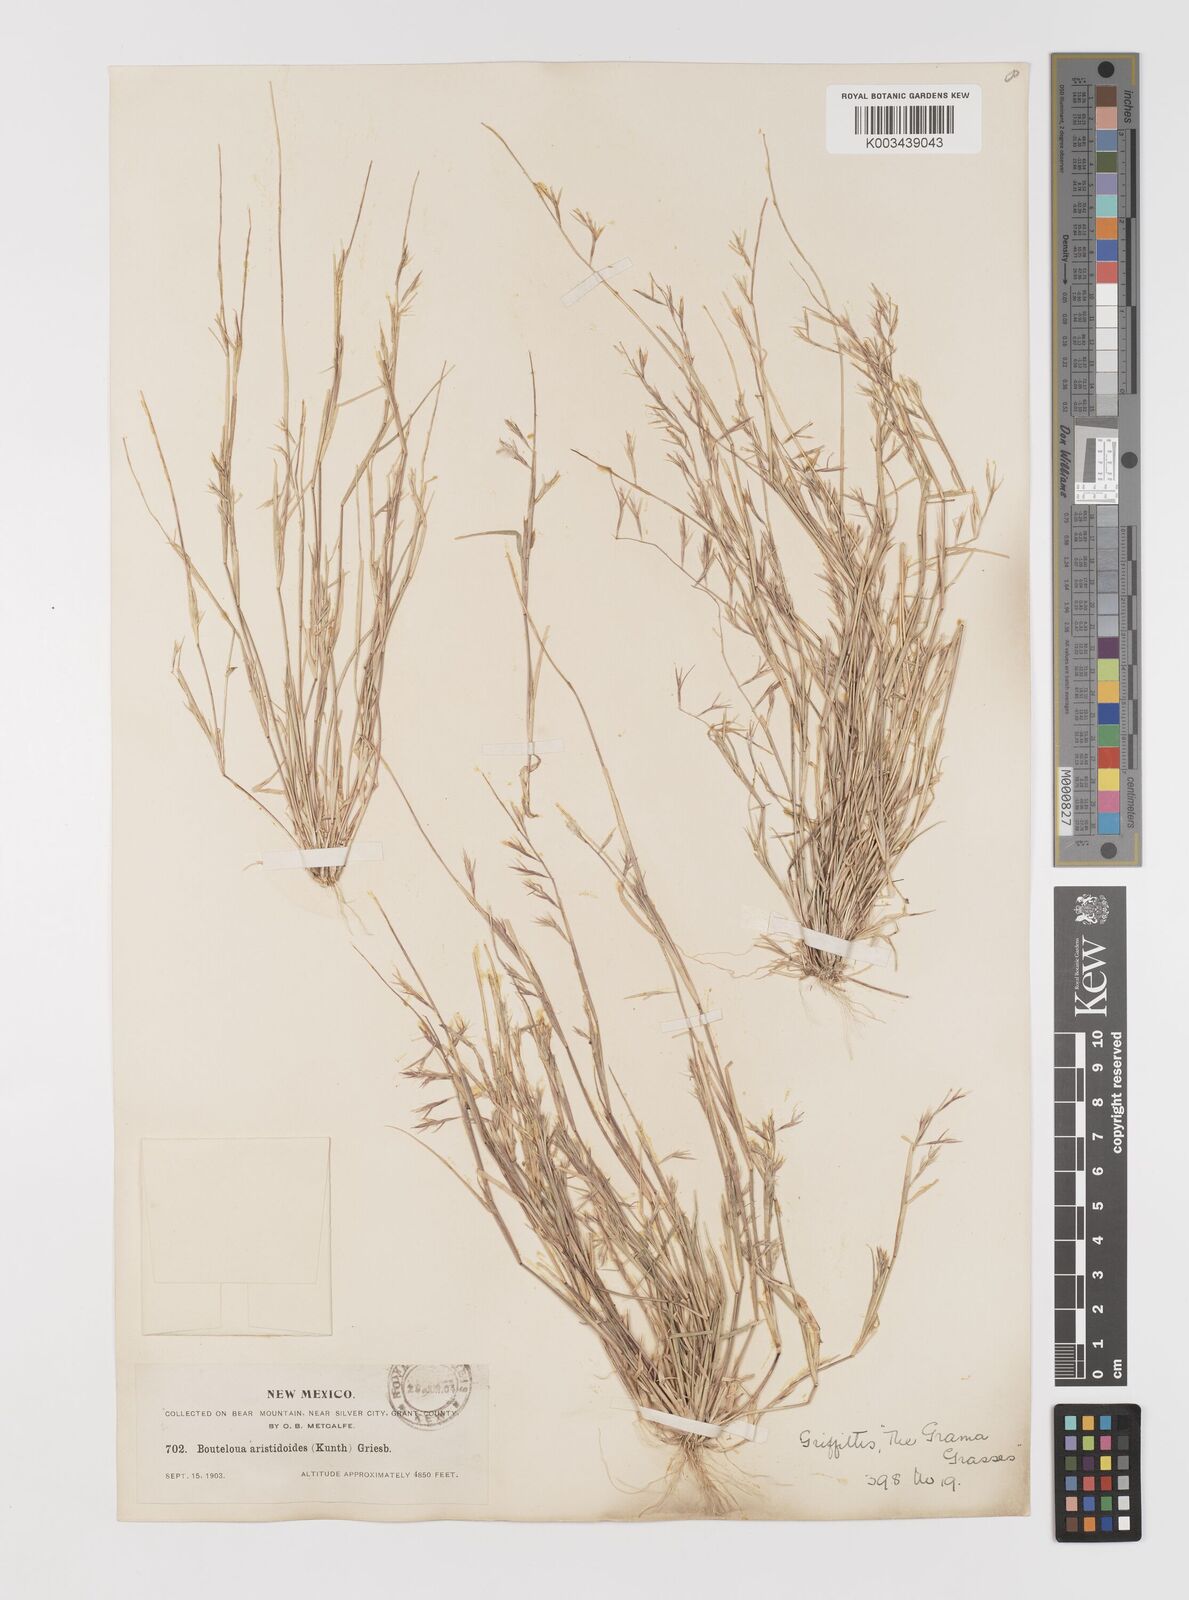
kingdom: Plantae
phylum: Tracheophyta
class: Liliopsida
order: Poales
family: Poaceae
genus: Bouteloua
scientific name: Bouteloua aristidoides
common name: Needle grama
